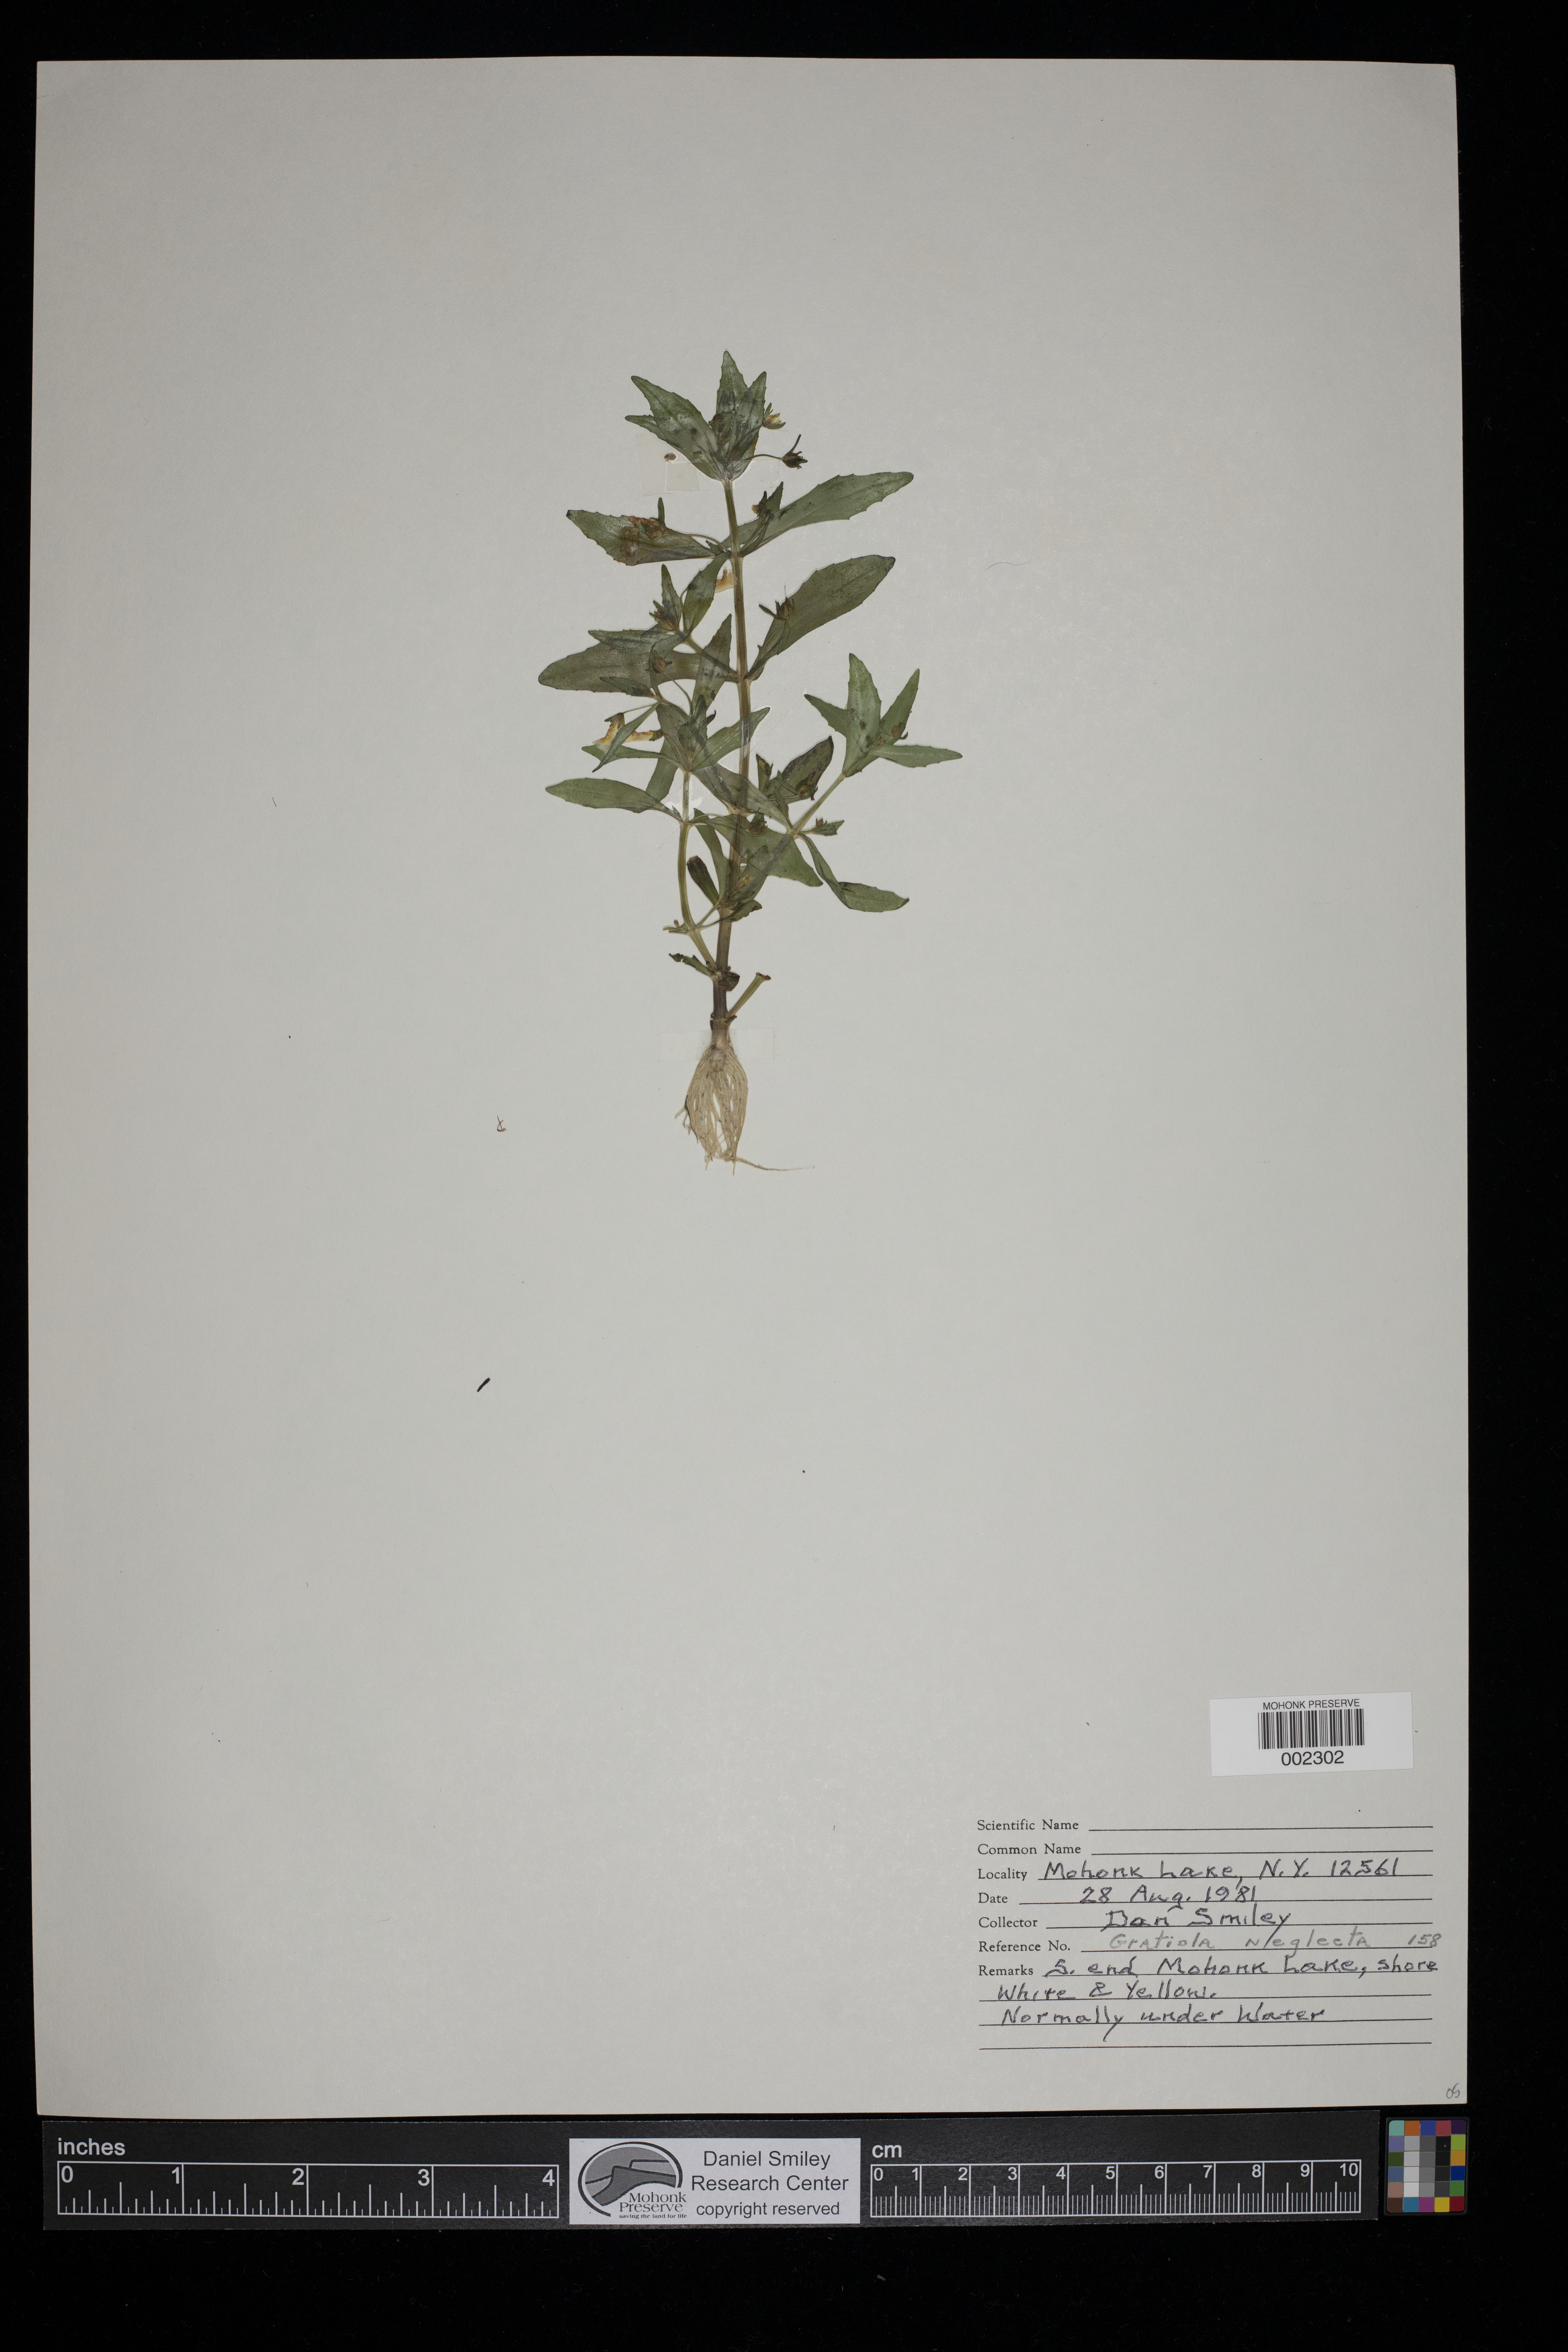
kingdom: Plantae
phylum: Tracheophyta
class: Magnoliopsida
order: Lamiales
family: Plantaginaceae
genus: Gratiola
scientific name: Gratiola neglecta
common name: American hedge-hyssop
